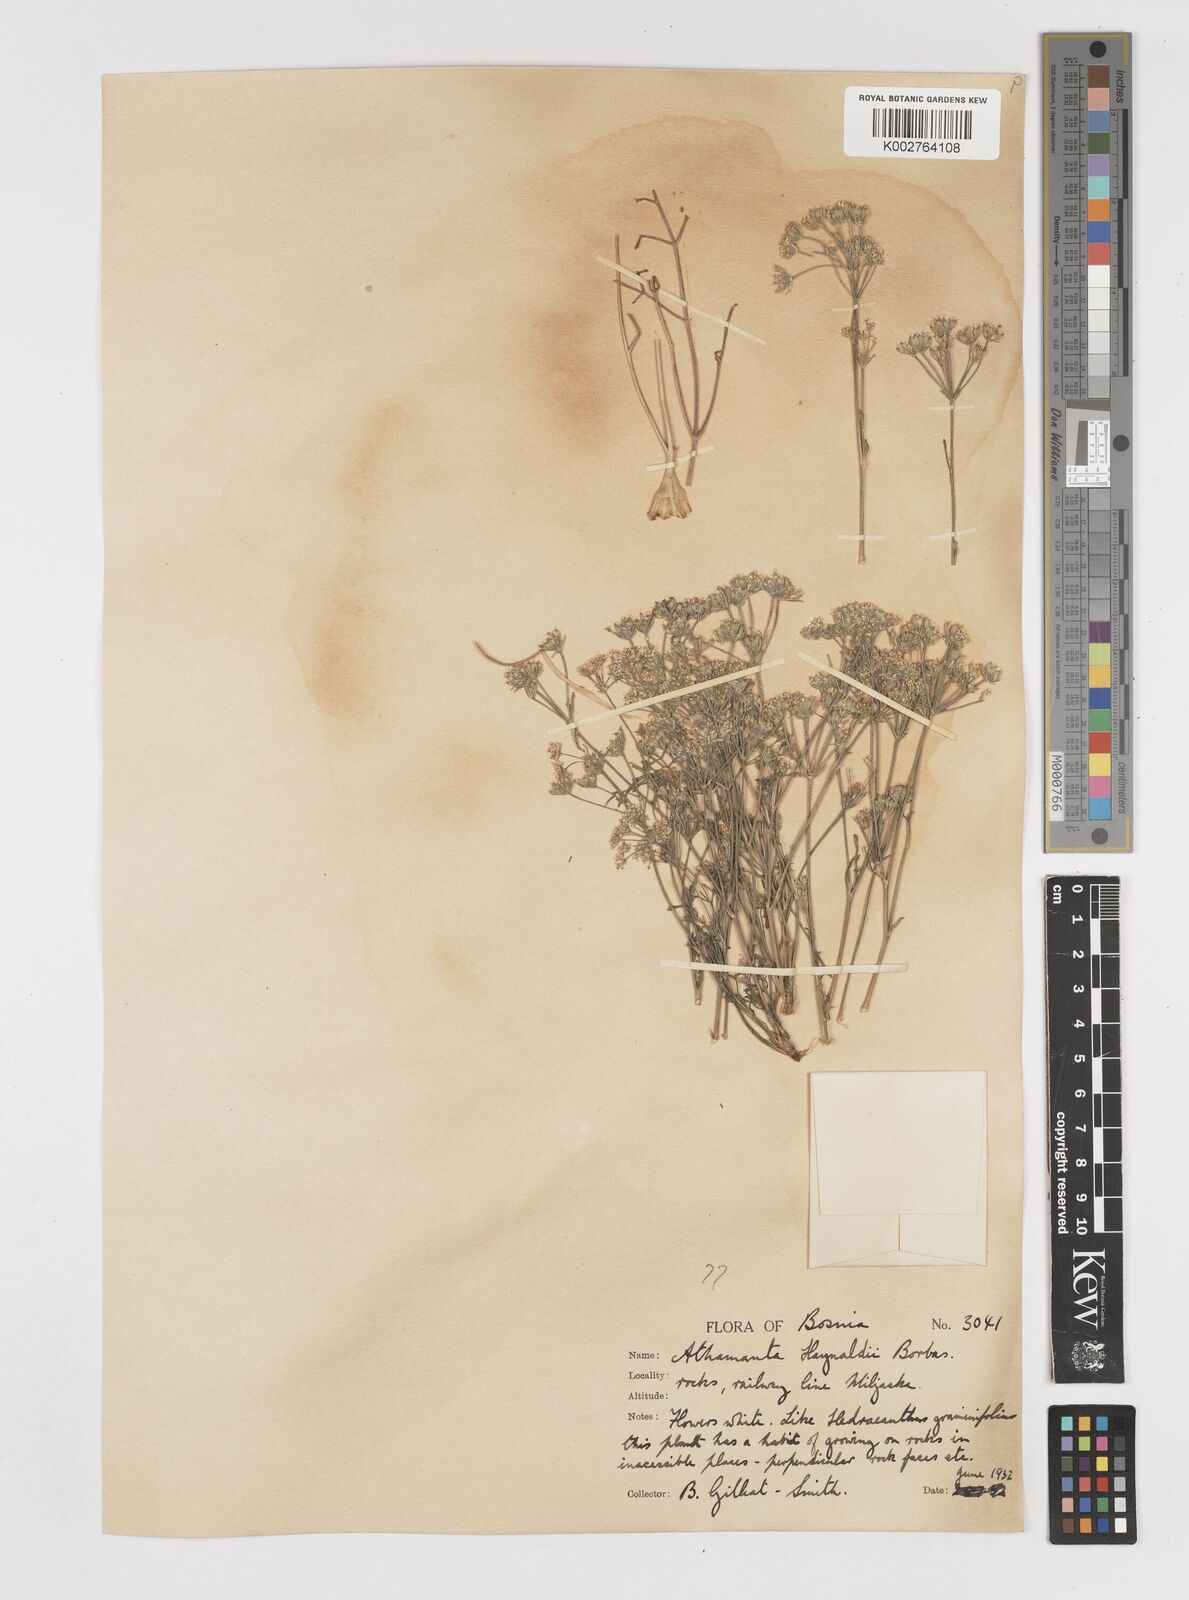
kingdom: Plantae
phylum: Tracheophyta
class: Magnoliopsida
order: Apiales
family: Apiaceae
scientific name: Apiaceae
